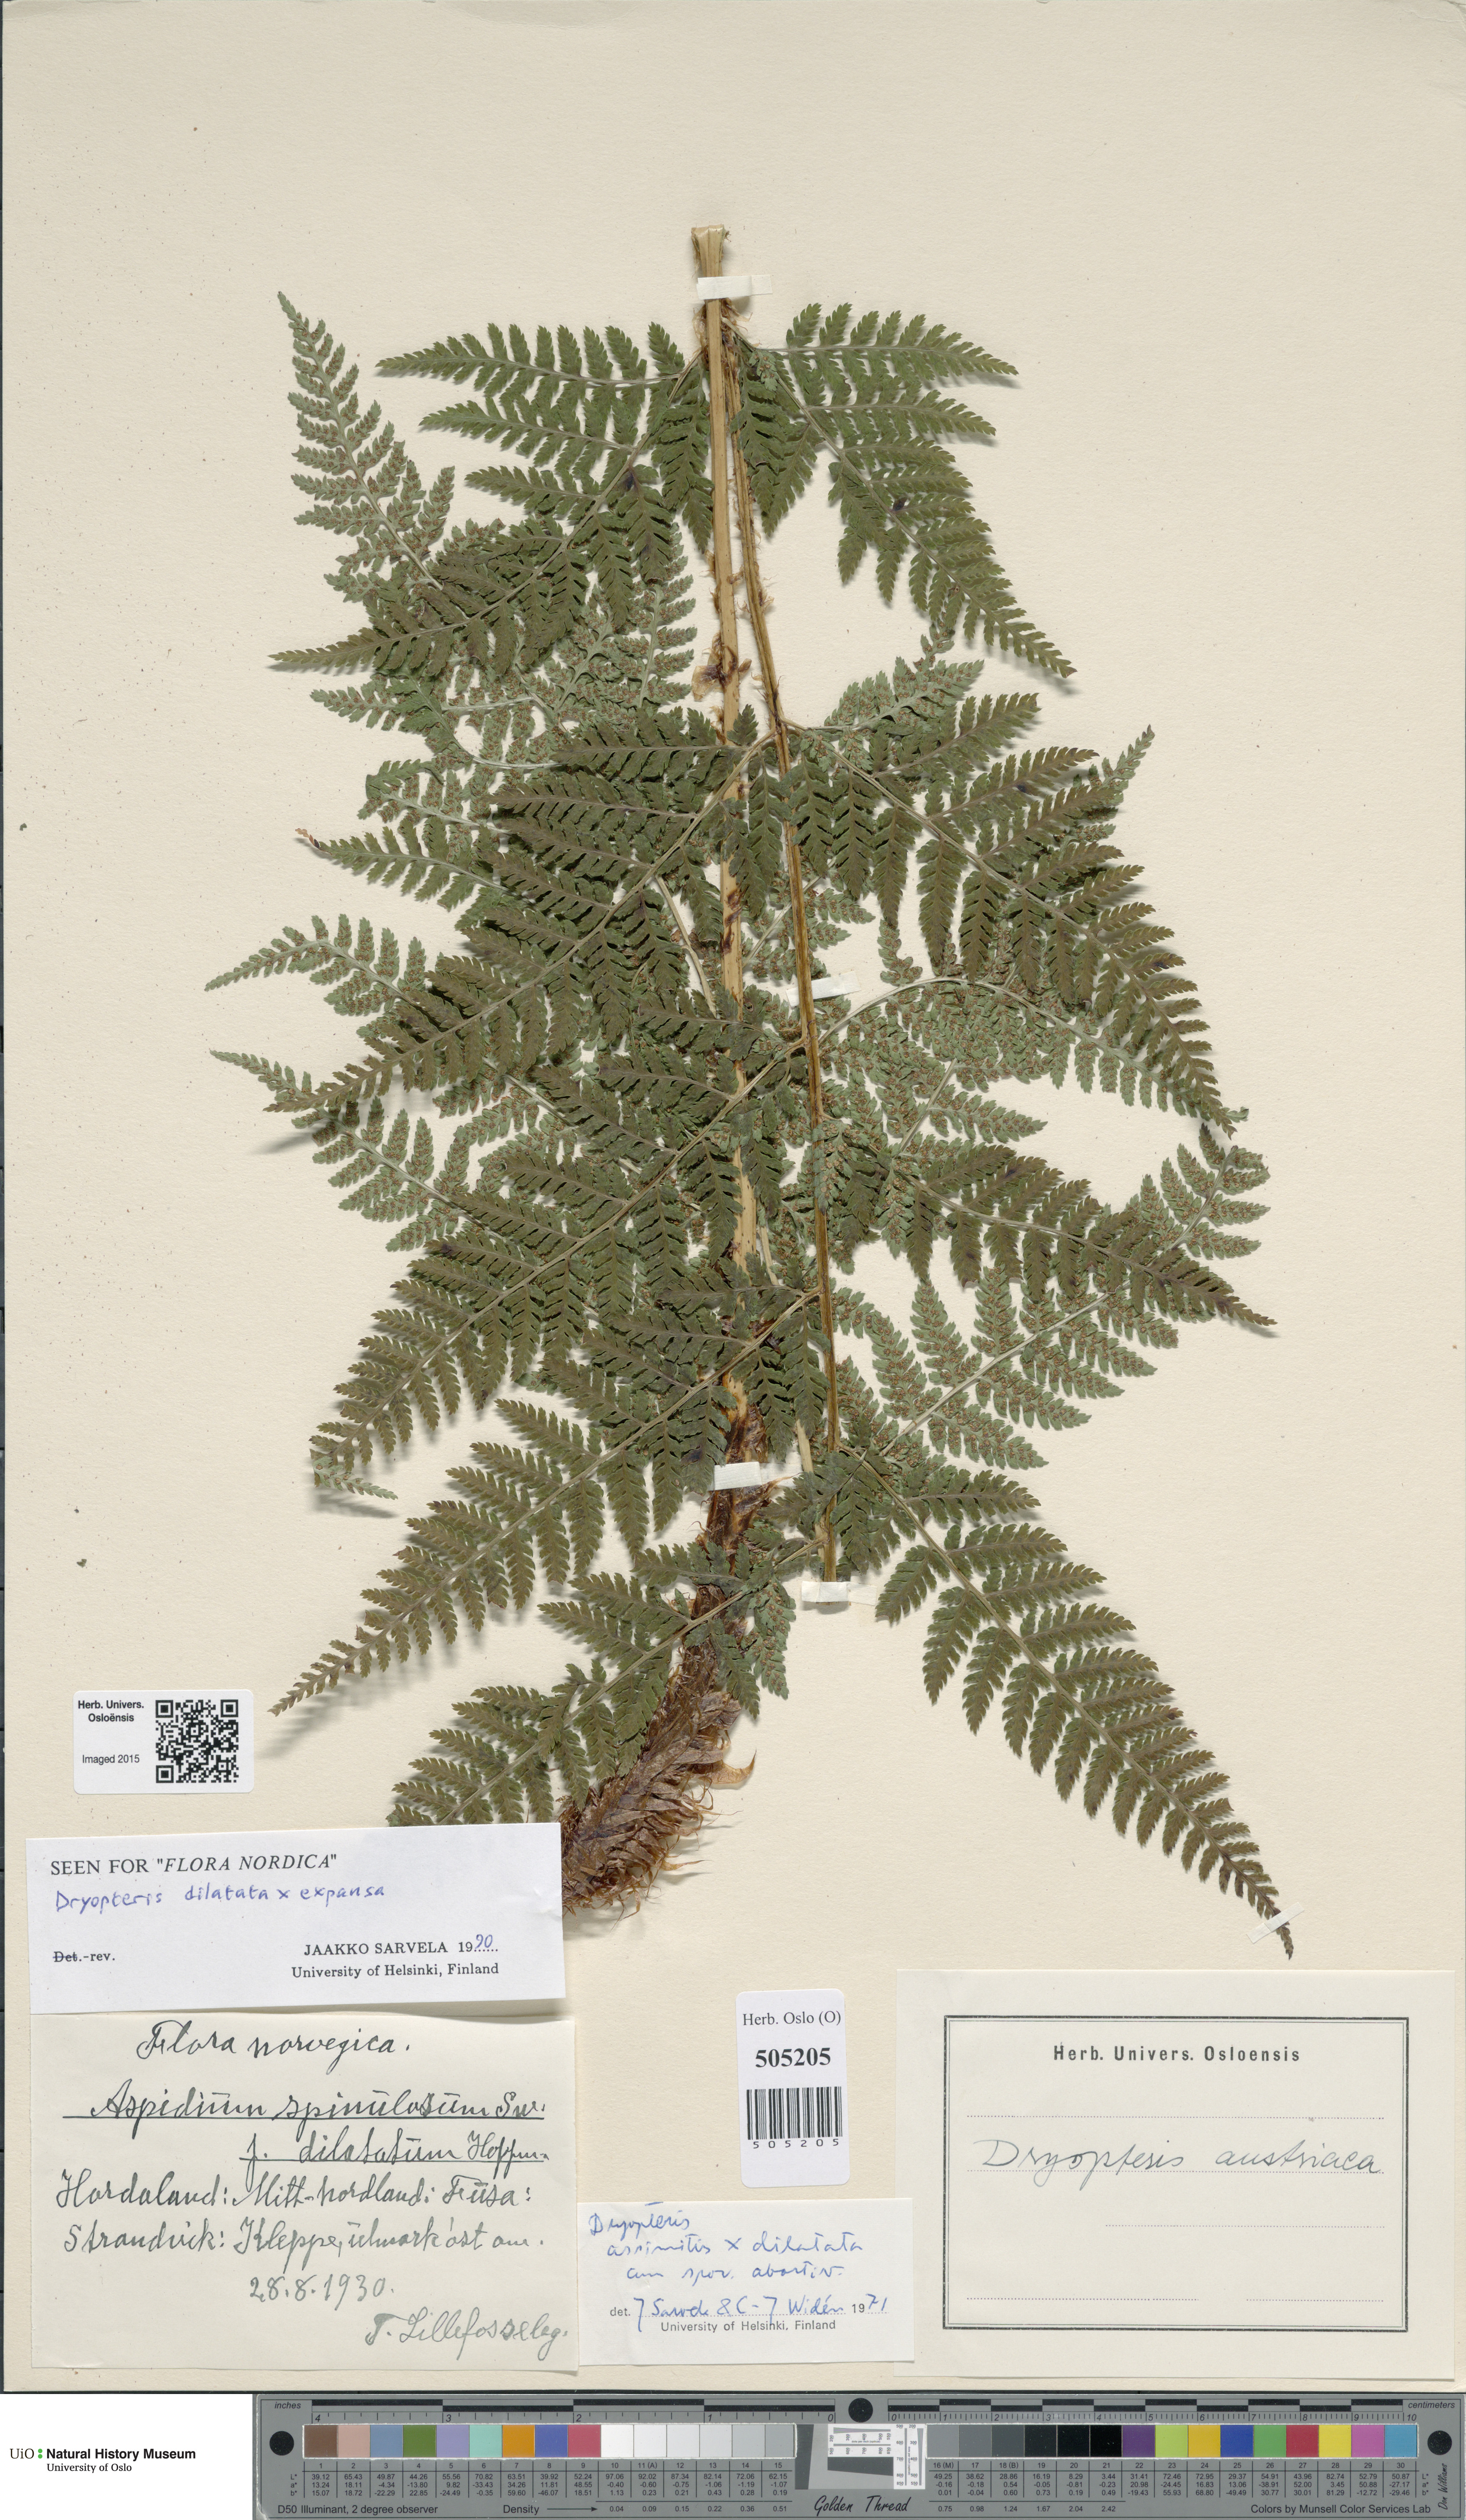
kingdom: Plantae
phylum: Tracheophyta
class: Polypodiopsida
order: Polypodiales
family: Dryopteridaceae
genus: Dryopteris
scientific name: Dryopteris
